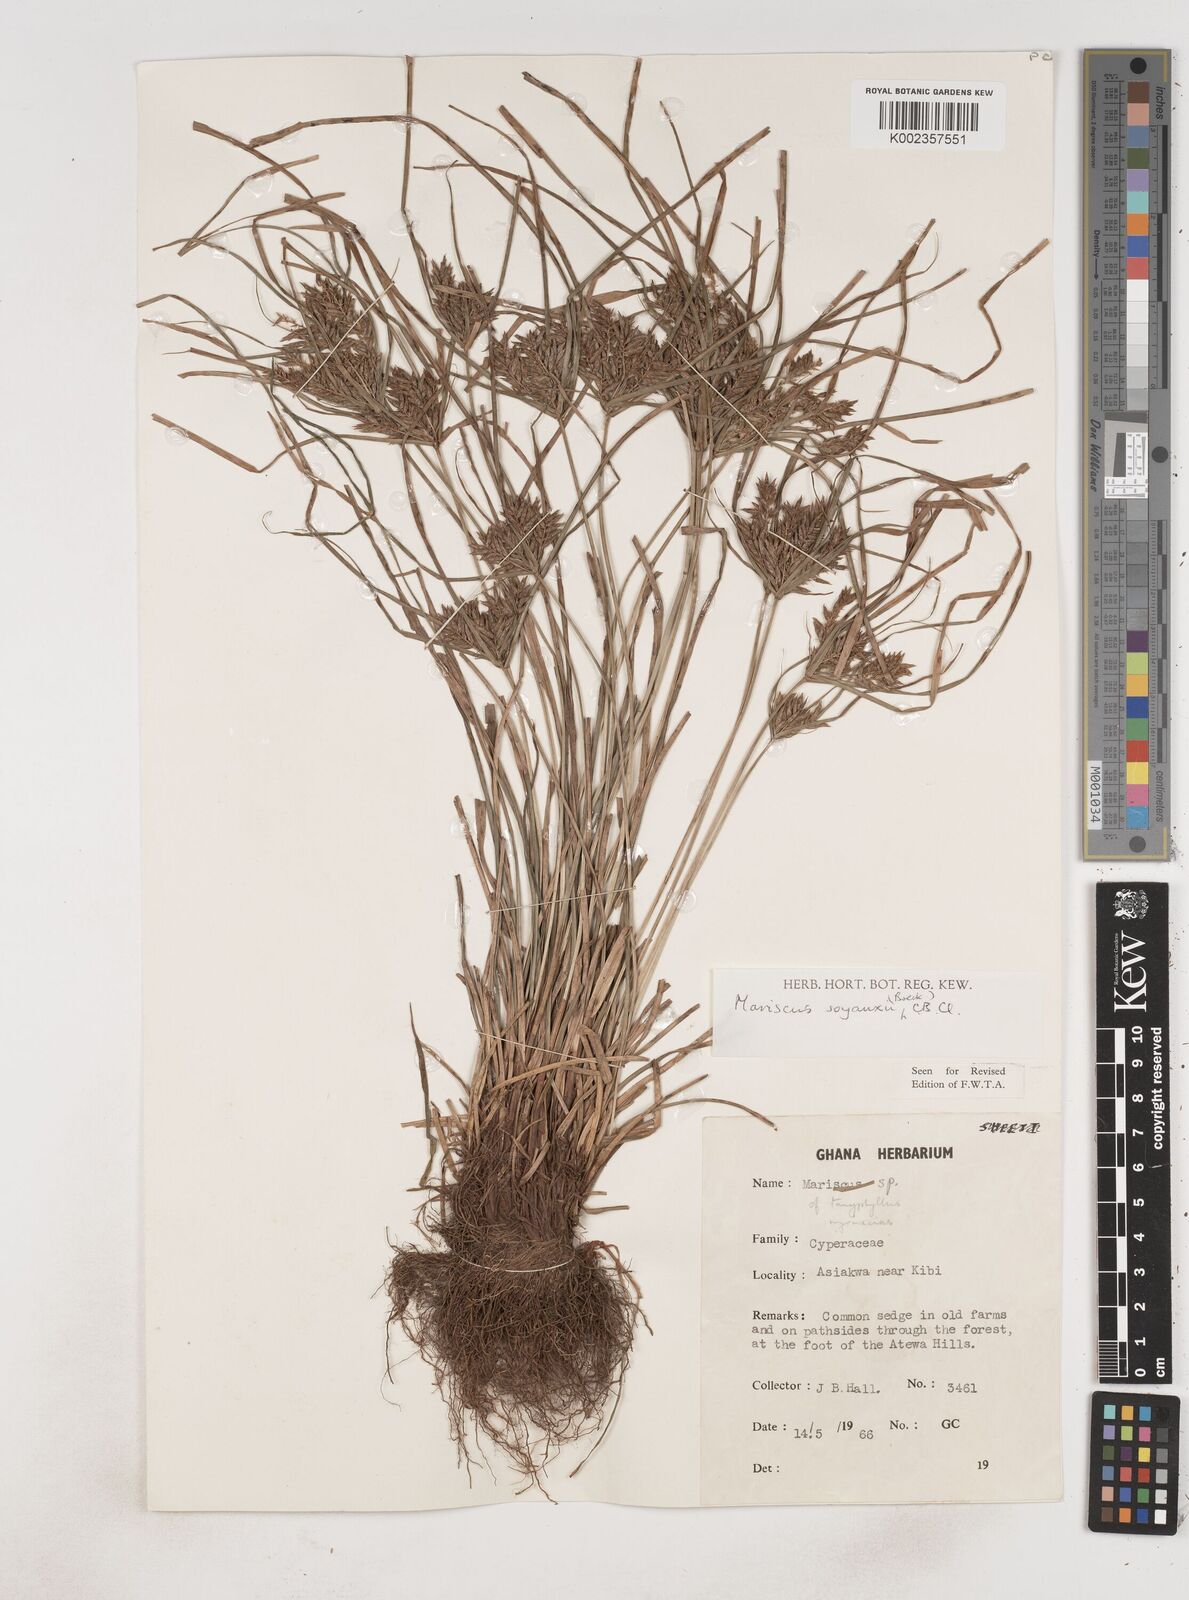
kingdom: Plantae
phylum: Tracheophyta
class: Liliopsida
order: Poales
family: Cyperaceae
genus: Cyperus
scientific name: Cyperus soyauxii
